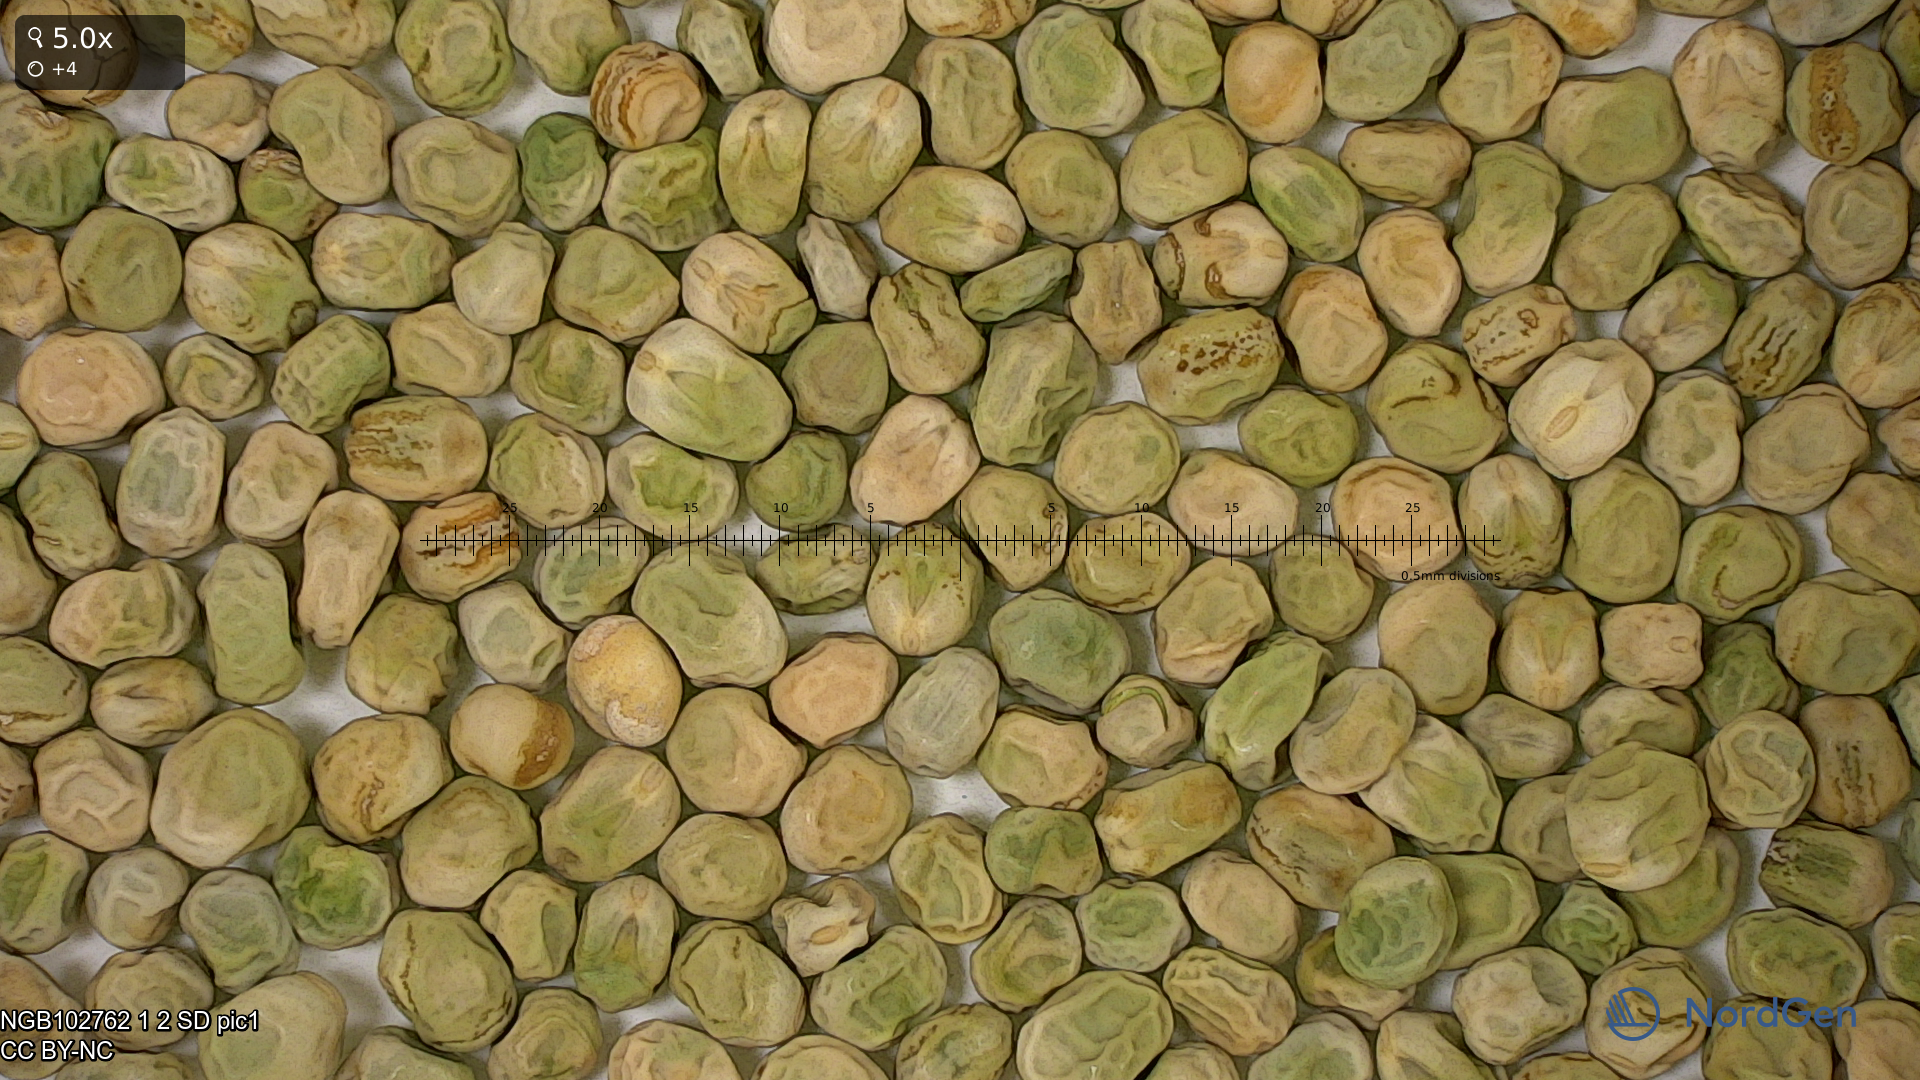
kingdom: Plantae
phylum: Tracheophyta
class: Magnoliopsida
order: Fabales
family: Fabaceae
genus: Lathyrus
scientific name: Lathyrus oleraceus
